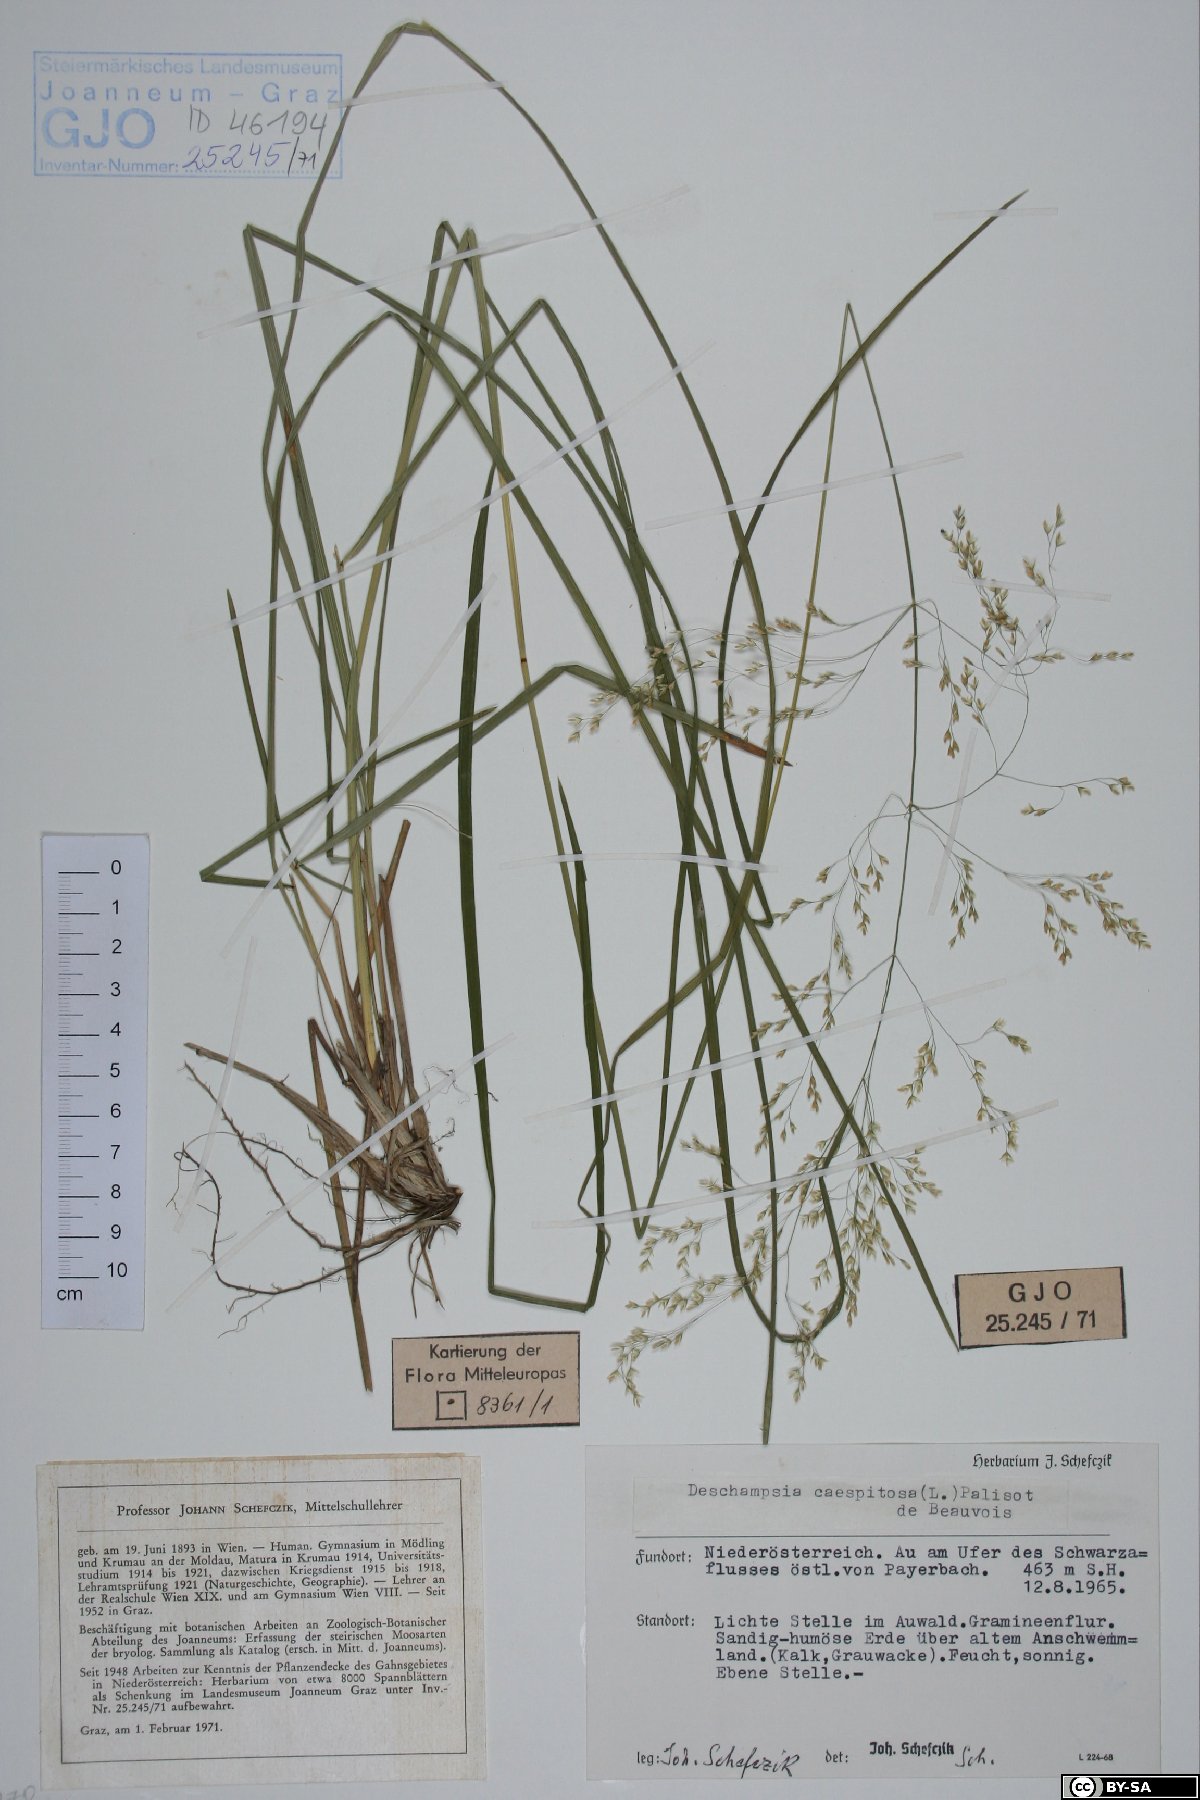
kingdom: Plantae
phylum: Tracheophyta
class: Liliopsida
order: Poales
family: Poaceae
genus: Deschampsia
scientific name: Deschampsia cespitosa
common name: Tufted hair-grass
